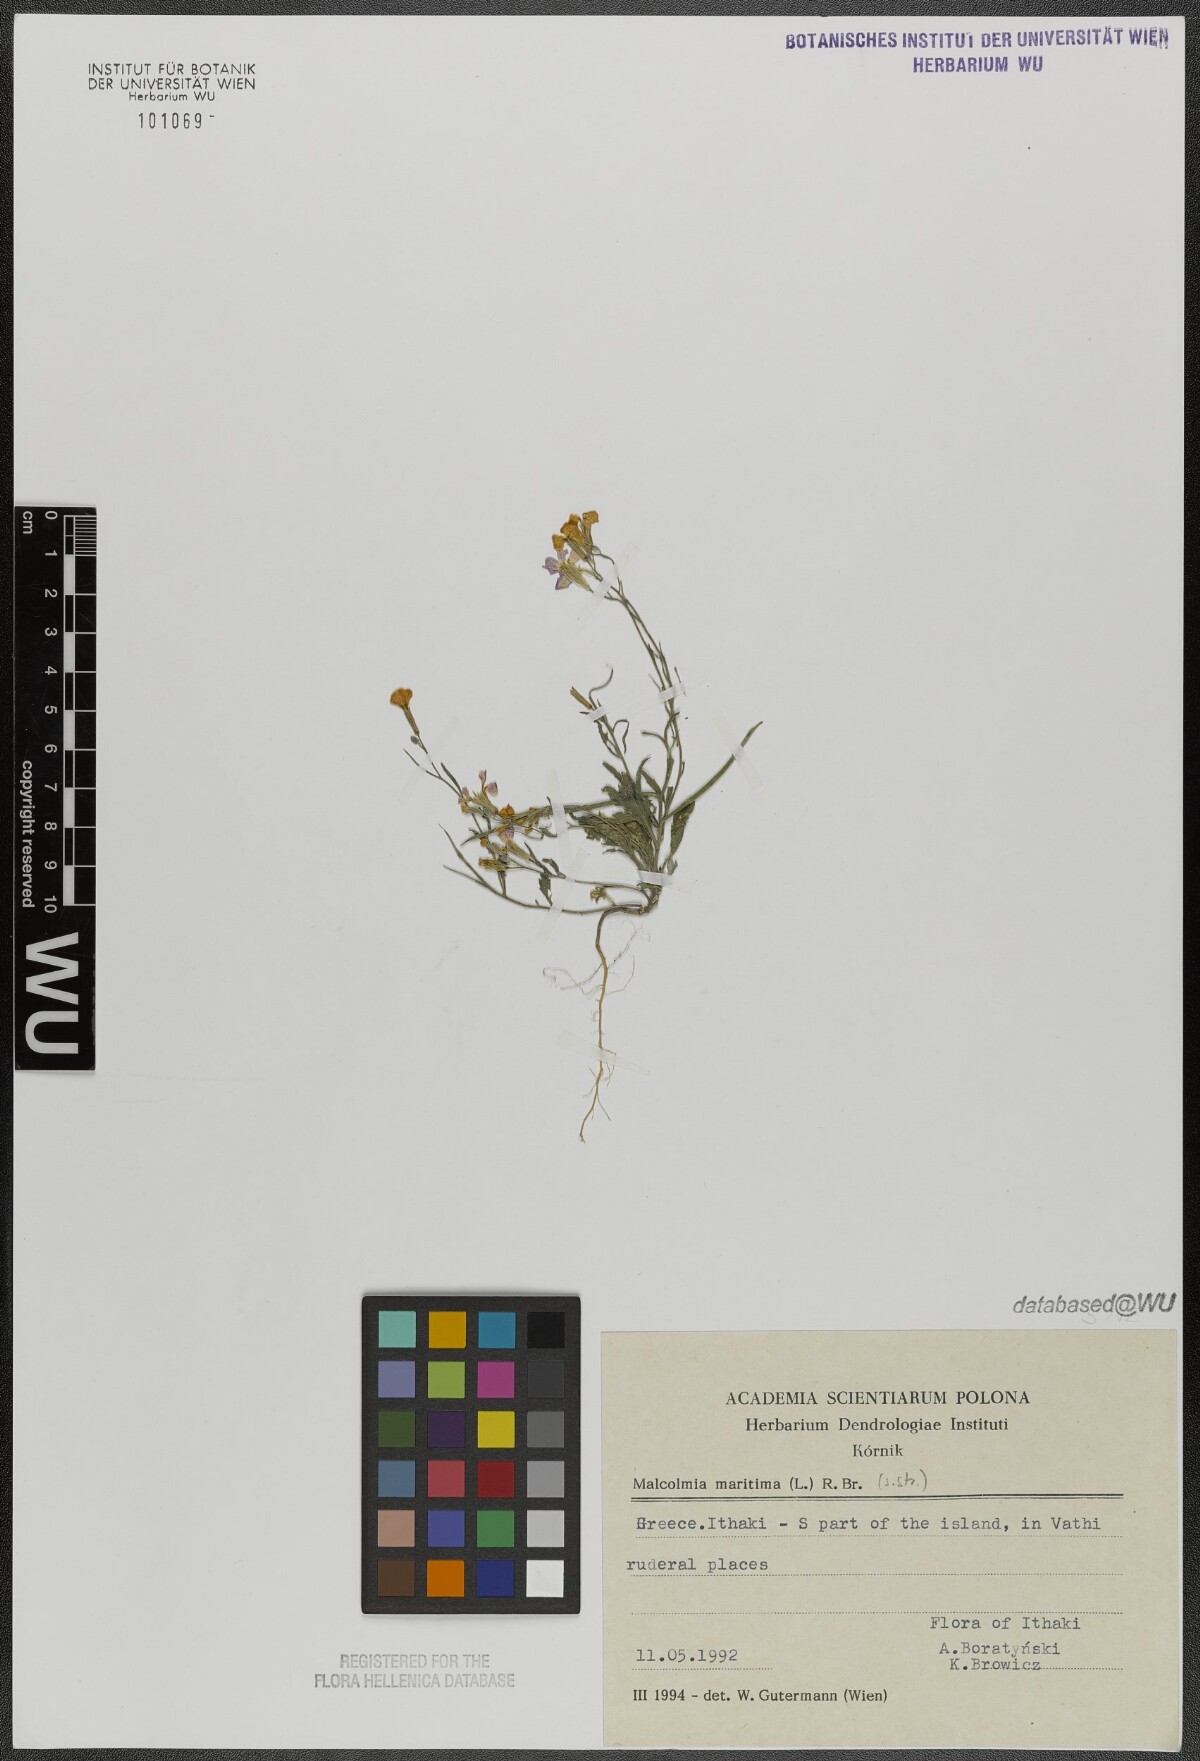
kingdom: Plantae
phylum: Tracheophyta
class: Magnoliopsida
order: Brassicales
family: Brassicaceae
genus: Malcolmia
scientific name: Malcolmia maritima
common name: Virginia stock
